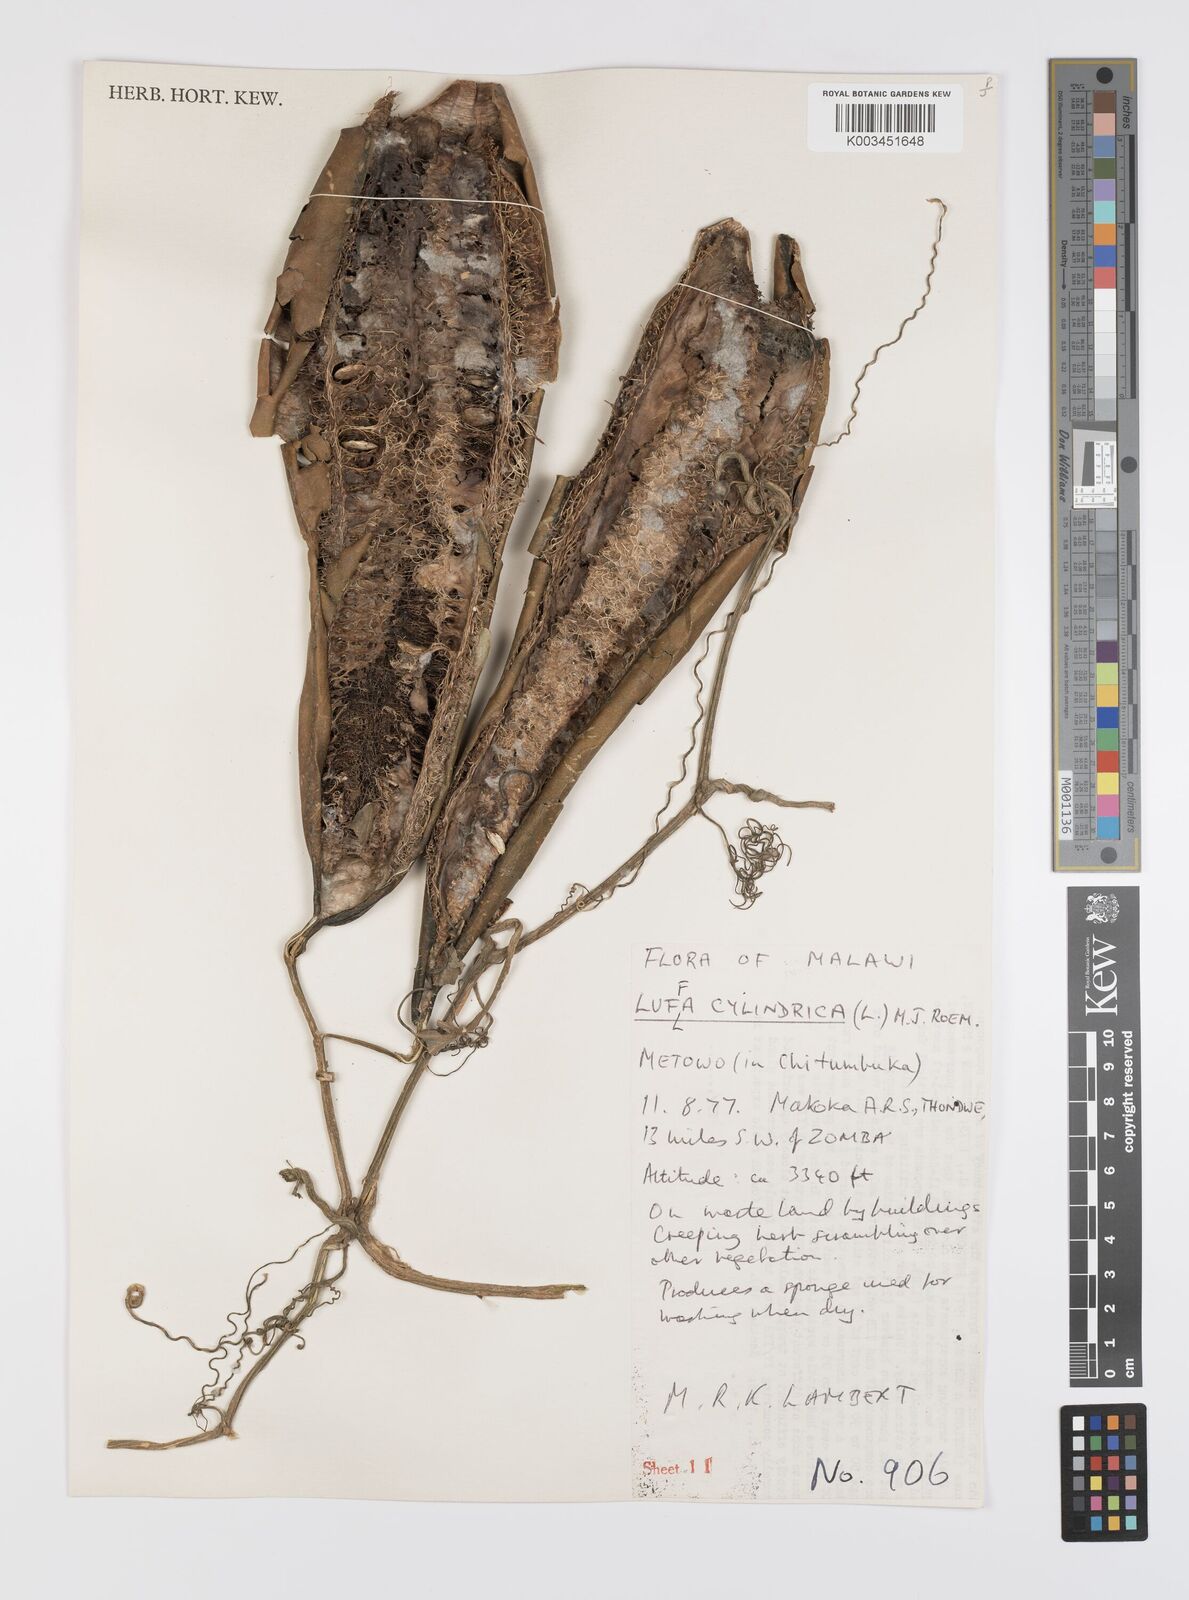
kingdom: Plantae
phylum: Tracheophyta
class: Magnoliopsida
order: Cucurbitales
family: Cucurbitaceae
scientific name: Cucurbitaceae
